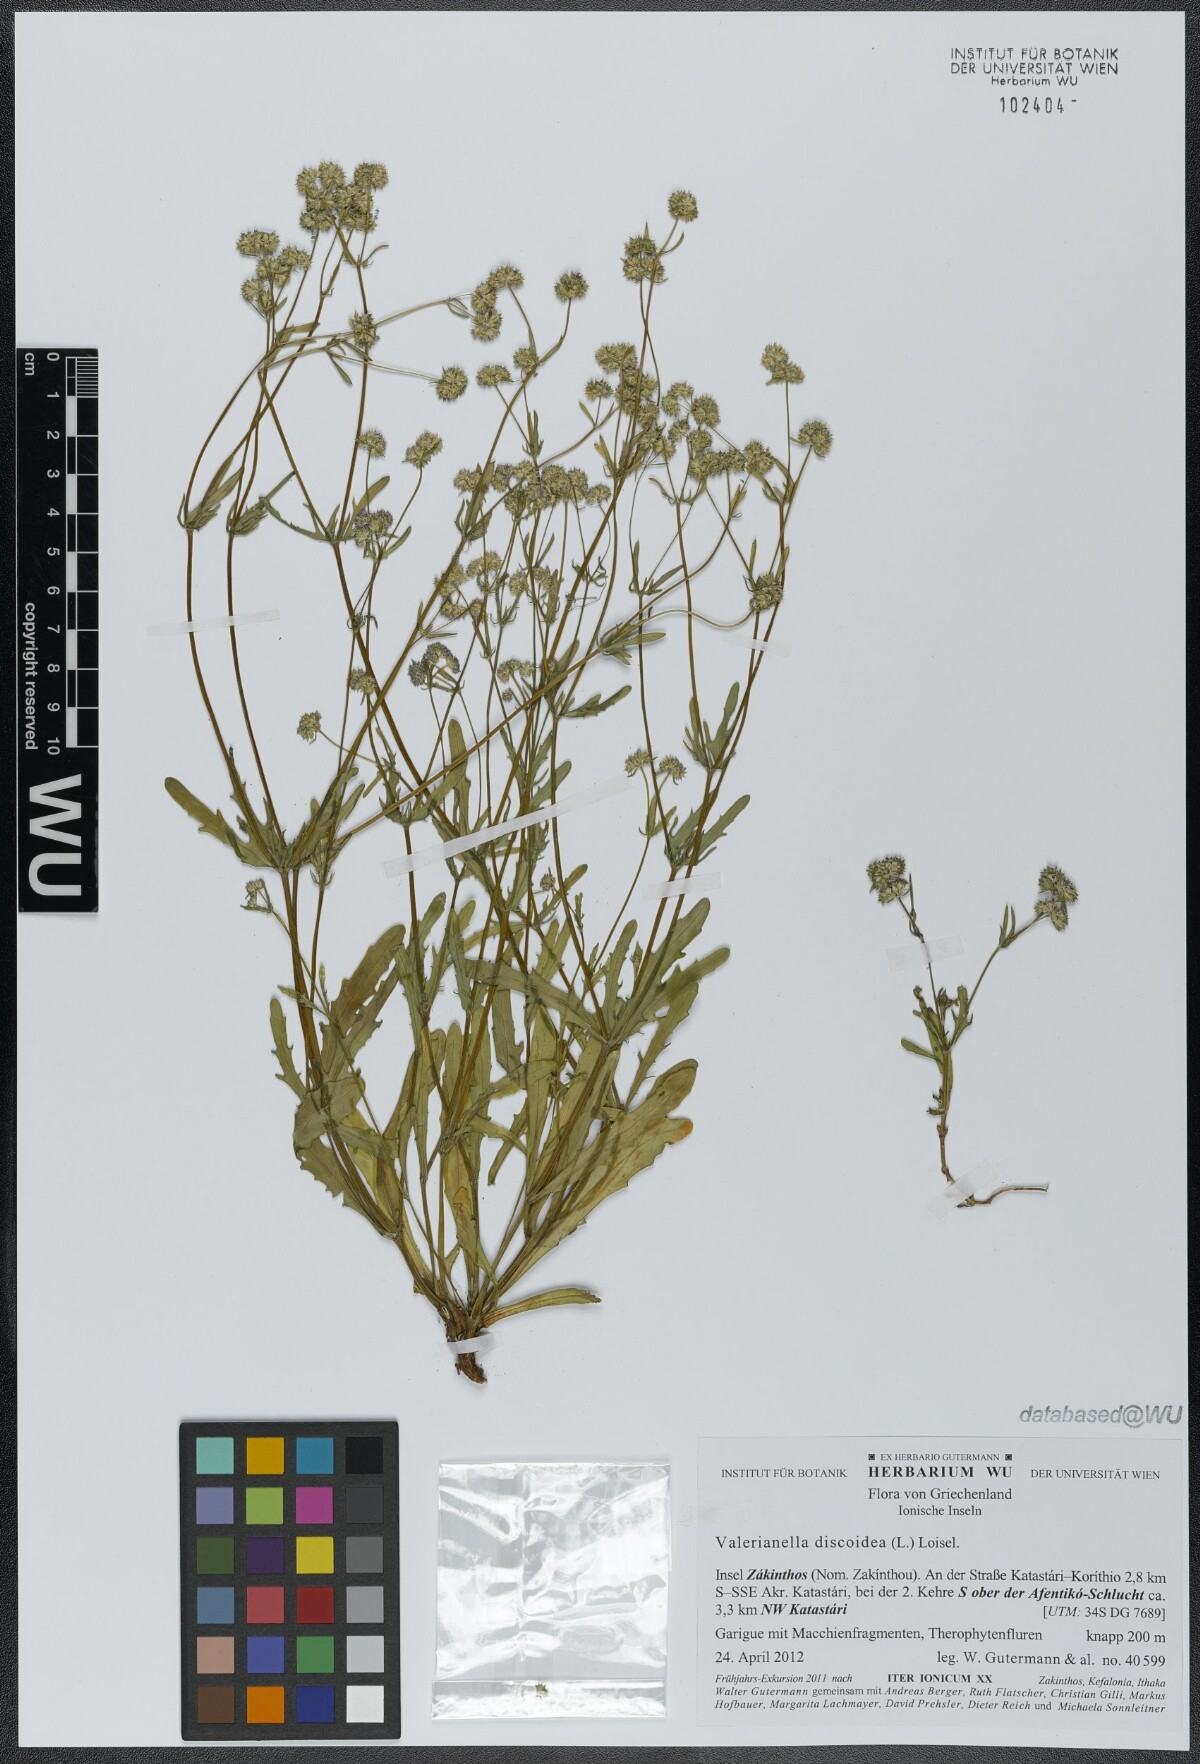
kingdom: Plantae
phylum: Tracheophyta
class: Magnoliopsida
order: Dipsacales
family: Caprifoliaceae
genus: Valerianella
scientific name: Valerianella discoidea
